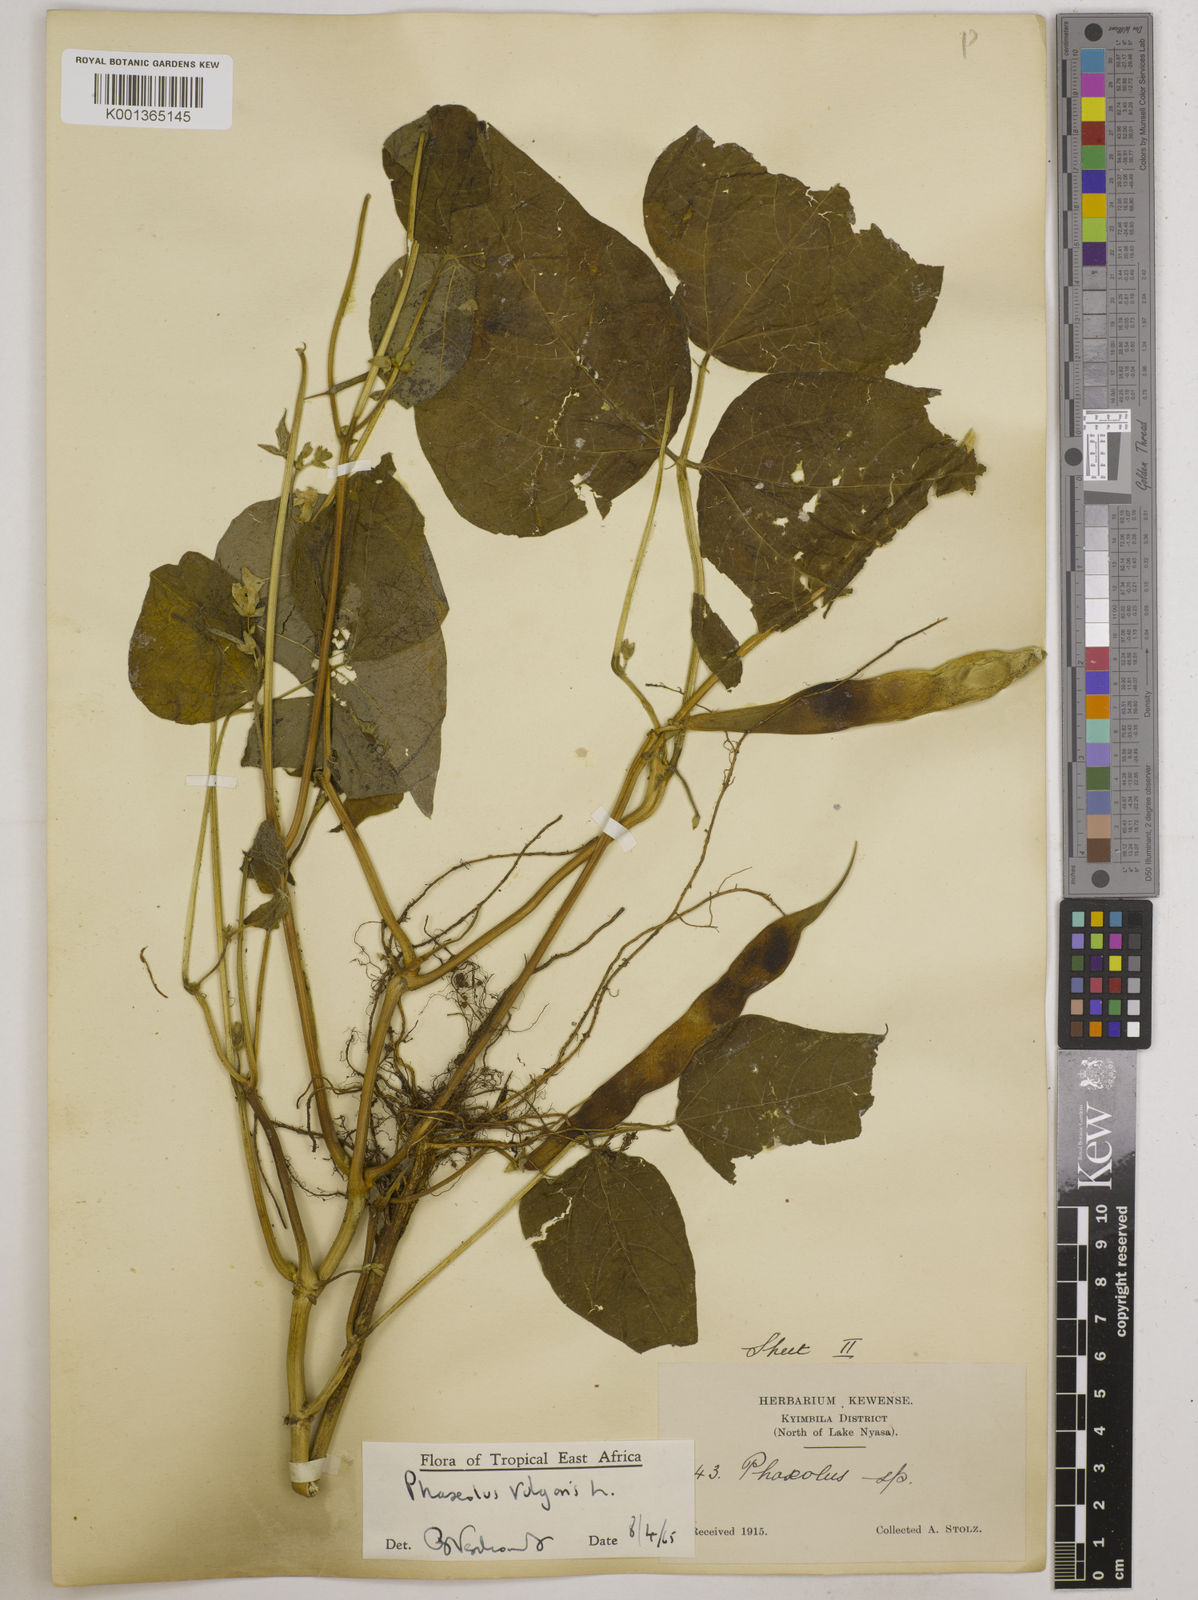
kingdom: Plantae
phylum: Tracheophyta
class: Magnoliopsida
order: Fabales
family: Fabaceae
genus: Phaseolus
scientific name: Phaseolus vulgaris
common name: Bean
